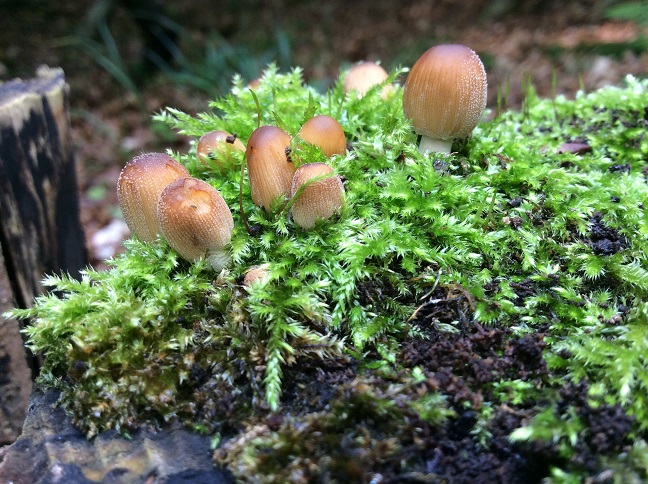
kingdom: Fungi
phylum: Basidiomycota
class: Agaricomycetes
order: Agaricales
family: Psathyrellaceae
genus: Coprinellus
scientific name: Coprinellus micaceus
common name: glimmer-blækhat
